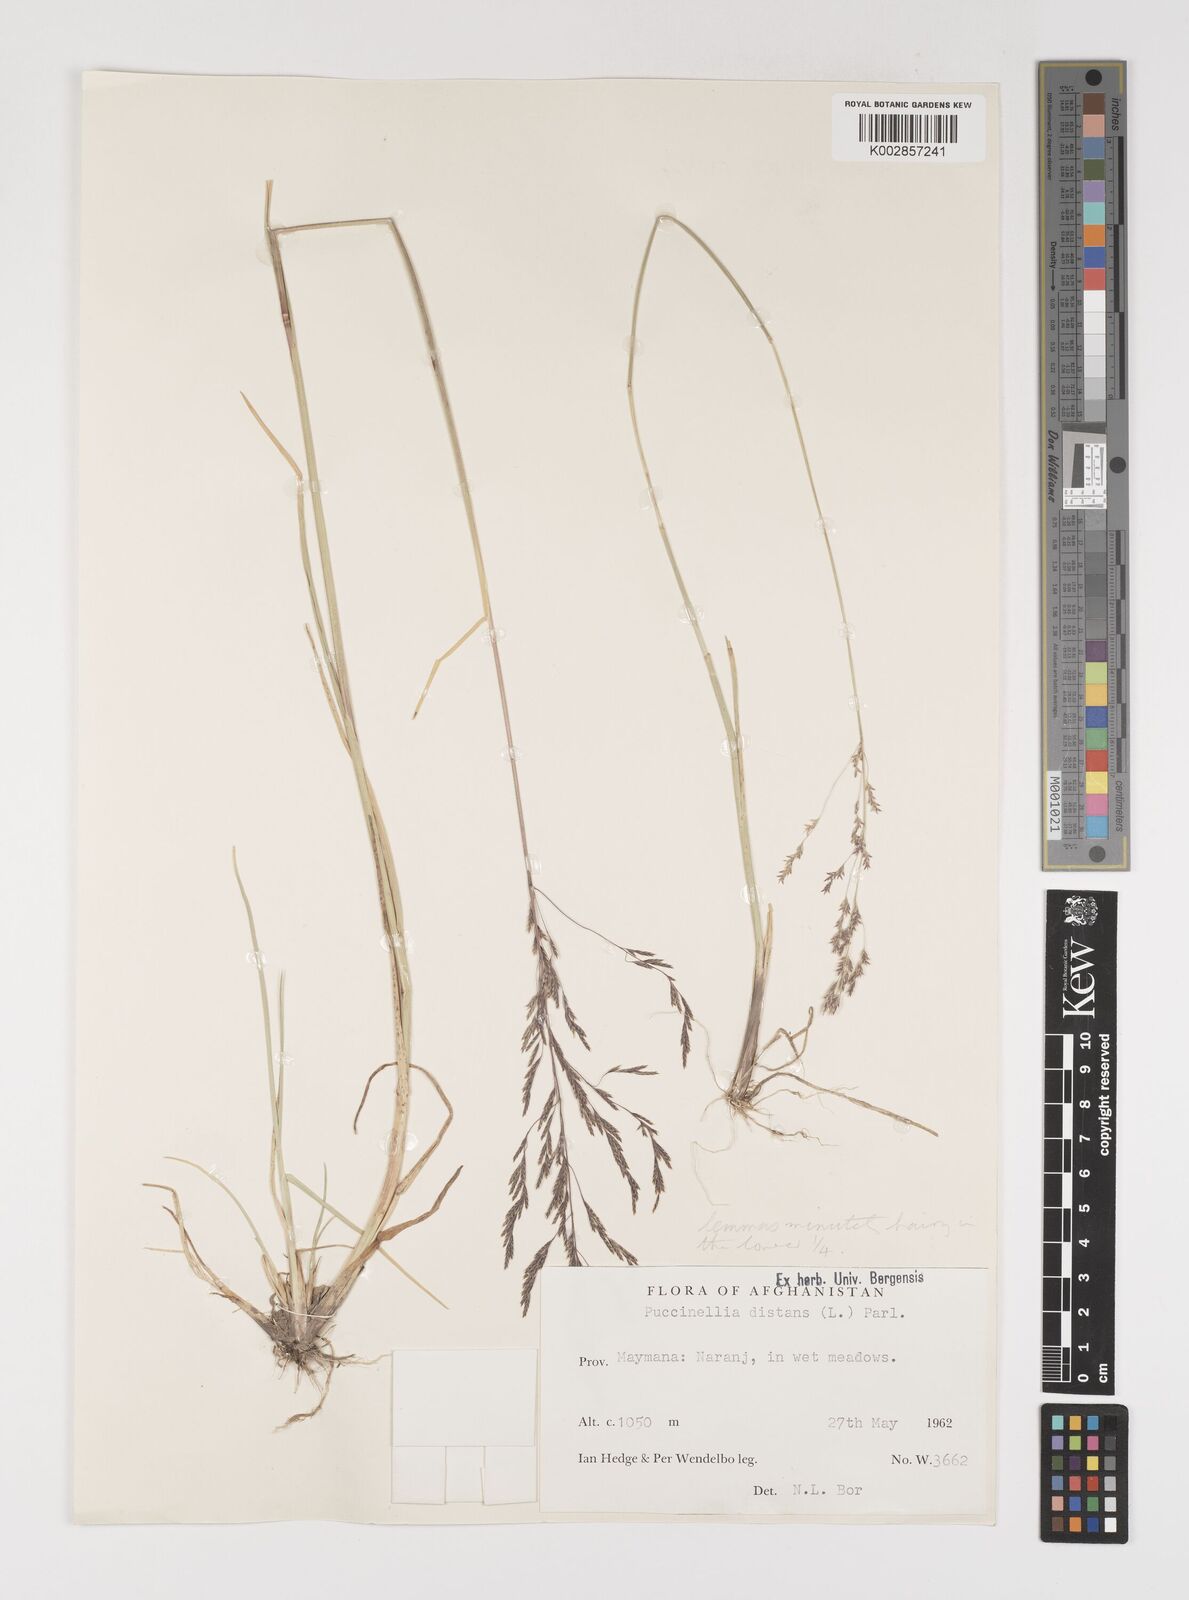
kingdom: Plantae
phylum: Tracheophyta
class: Liliopsida
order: Poales
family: Poaceae
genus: Puccinellia
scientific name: Puccinellia distans
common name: Weeping alkaligrass
